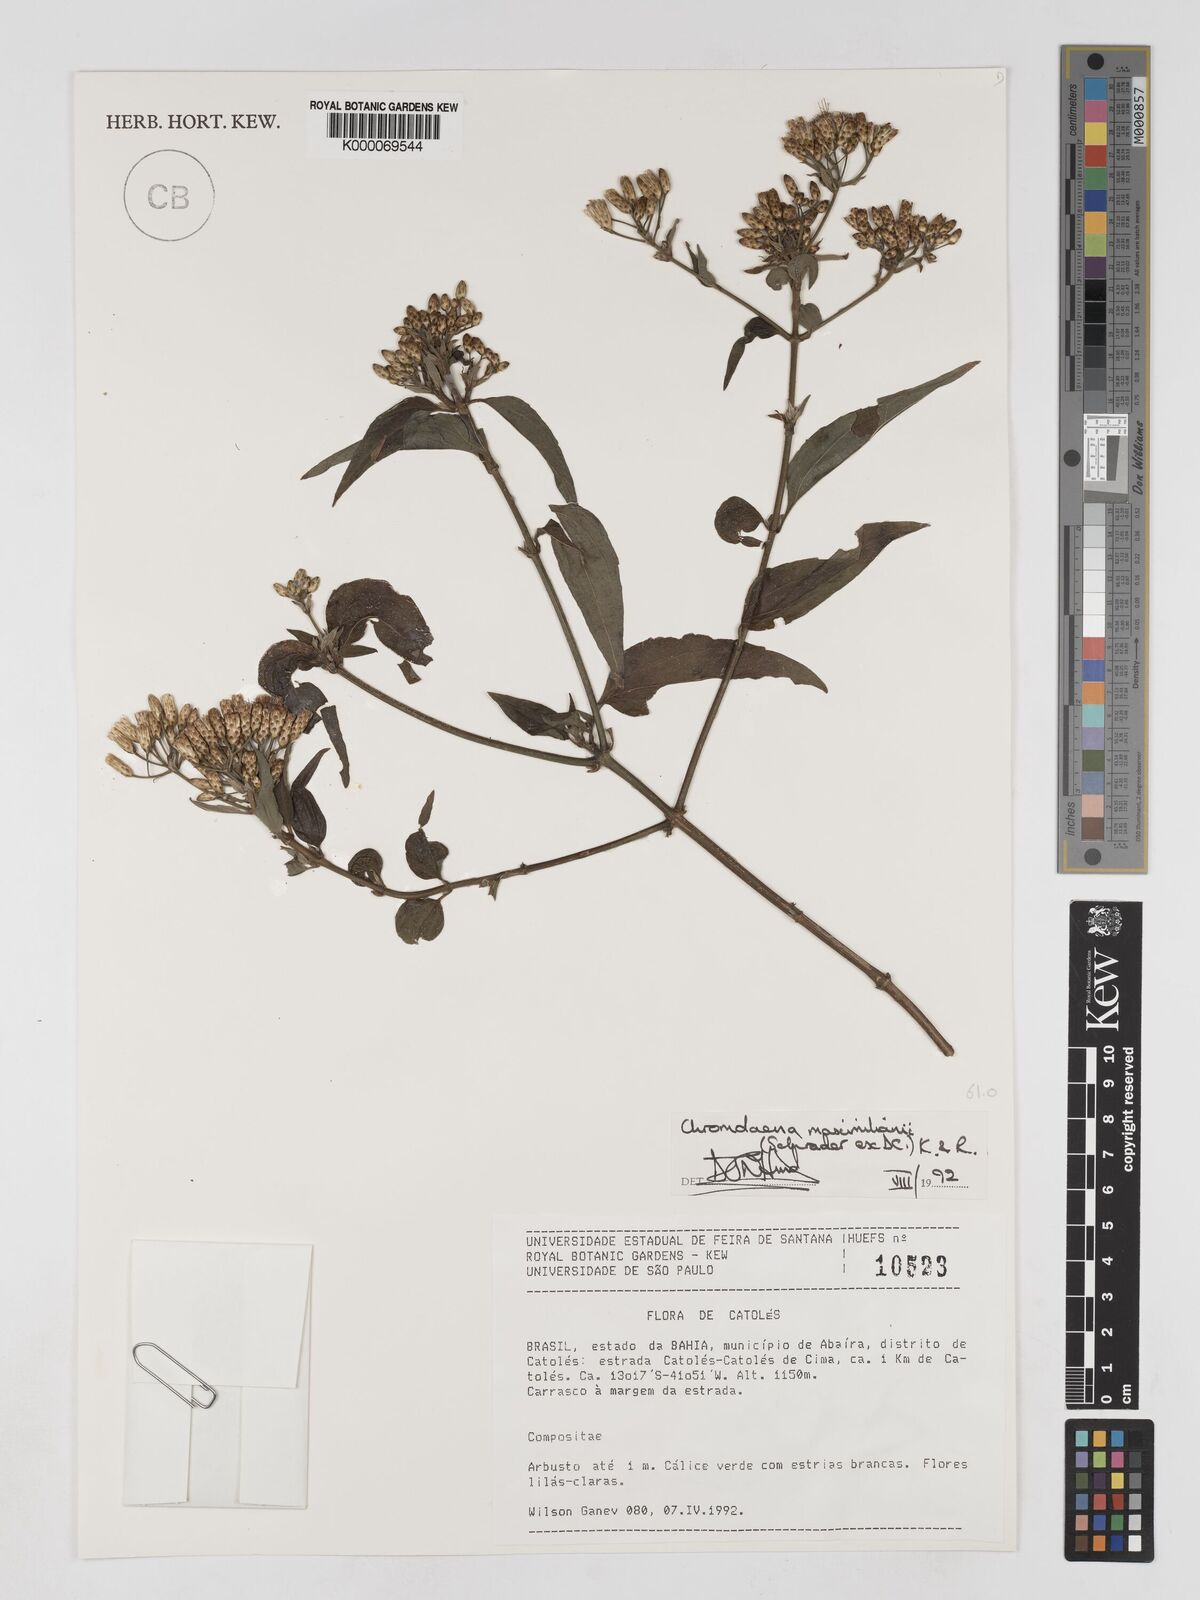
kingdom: Plantae
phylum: Tracheophyta
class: Magnoliopsida
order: Asterales
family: Asteraceae
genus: Chromolaena
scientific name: Chromolaena laevigata
